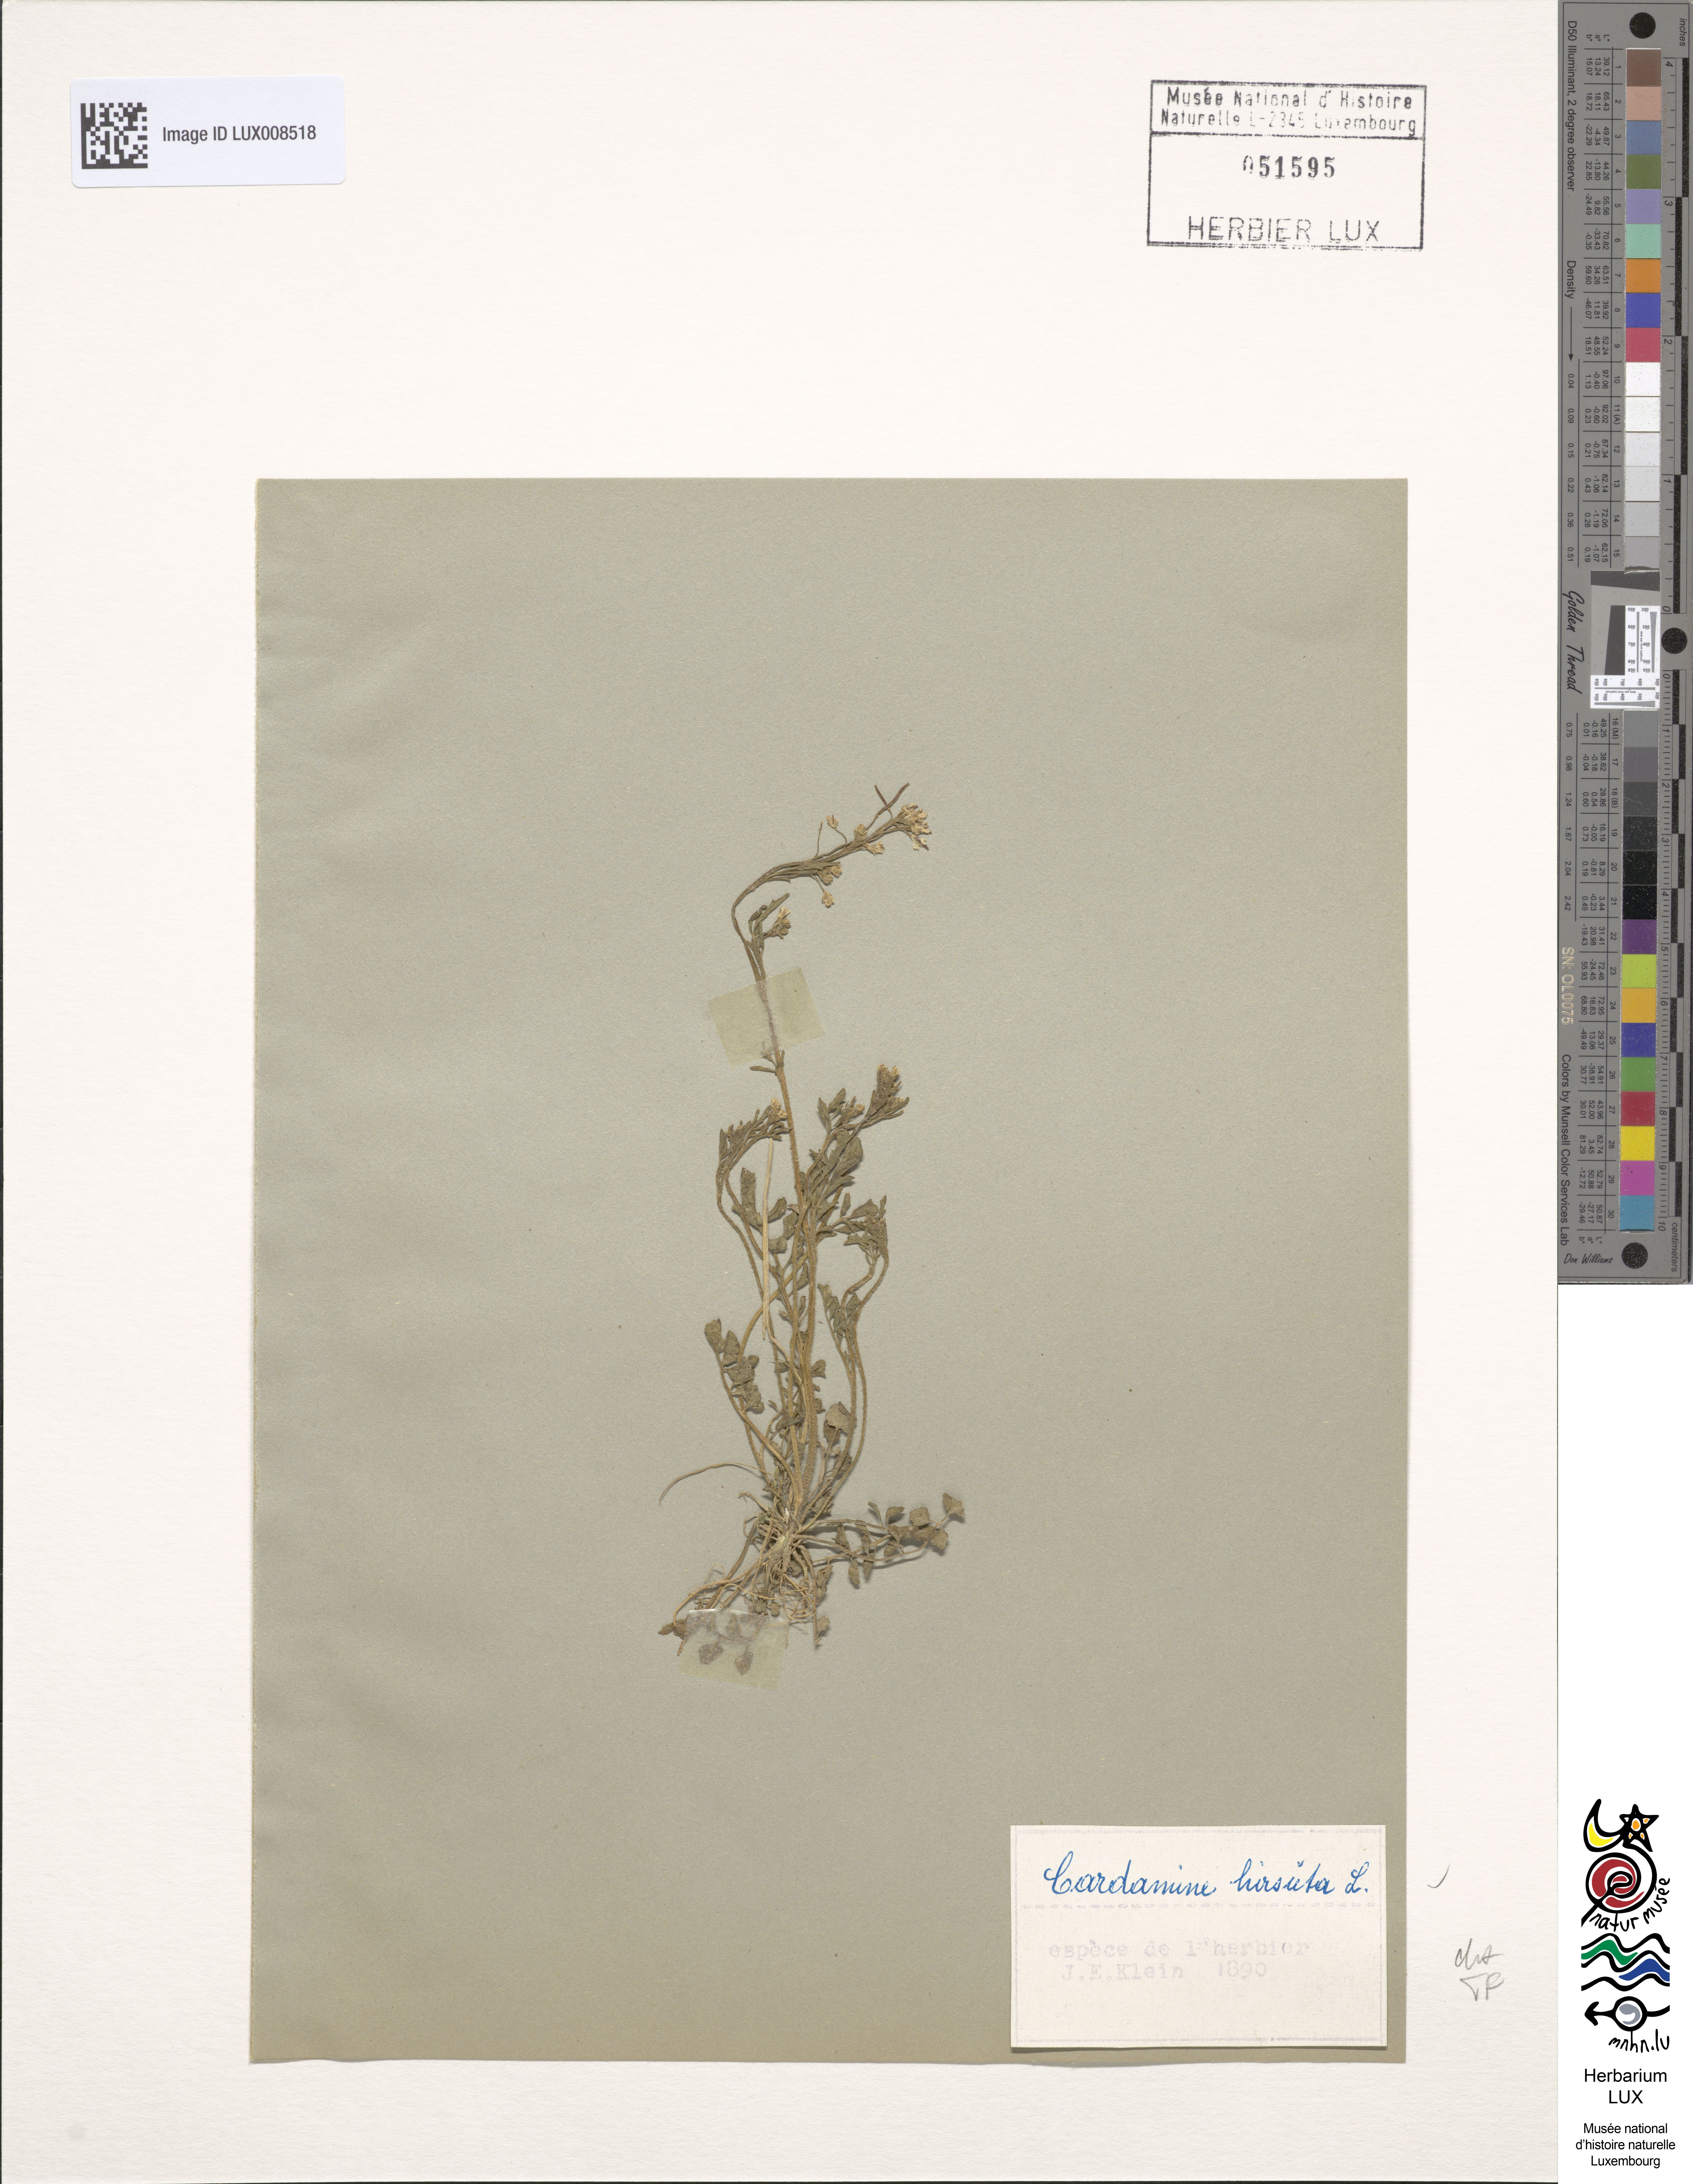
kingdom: Plantae
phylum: Tracheophyta
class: Magnoliopsida
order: Brassicales
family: Brassicaceae
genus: Cardamine
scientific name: Cardamine hirsuta
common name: Hairy bittercress
